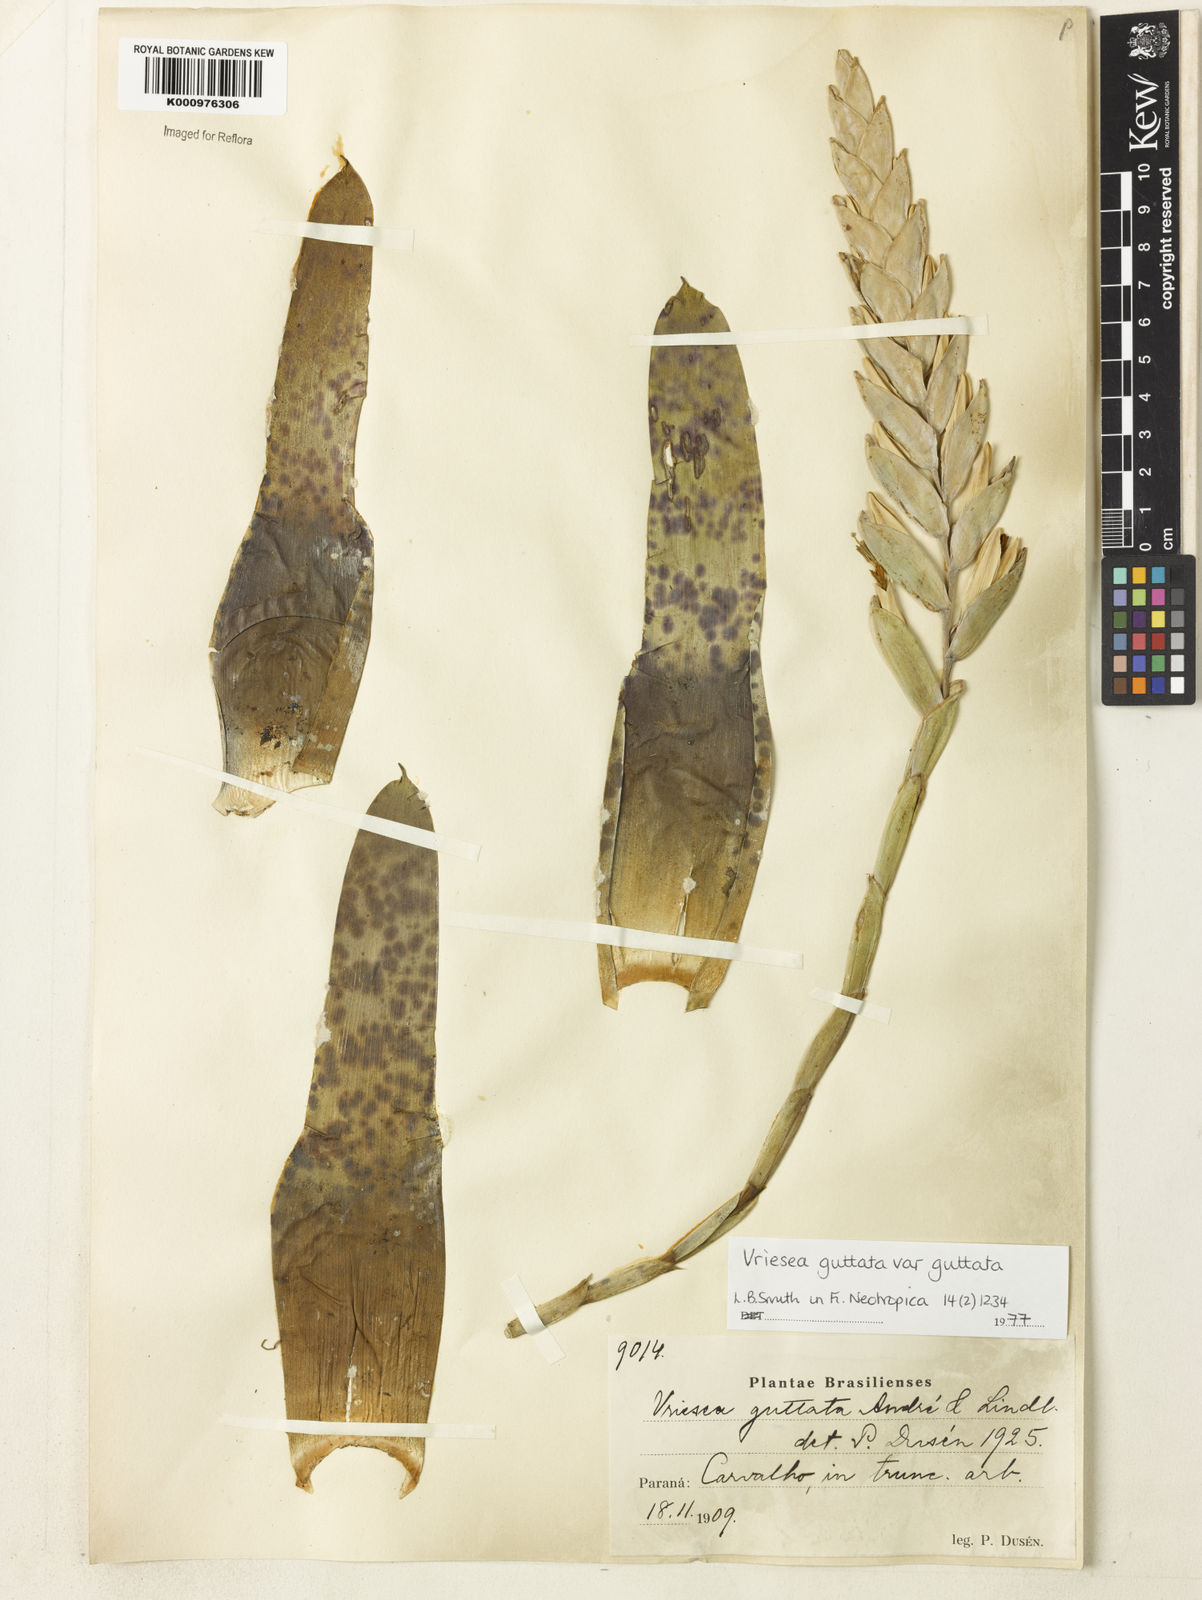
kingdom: Plantae
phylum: Tracheophyta
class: Liliopsida
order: Poales
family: Bromeliaceae
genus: Vriesea
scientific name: Vriesea
